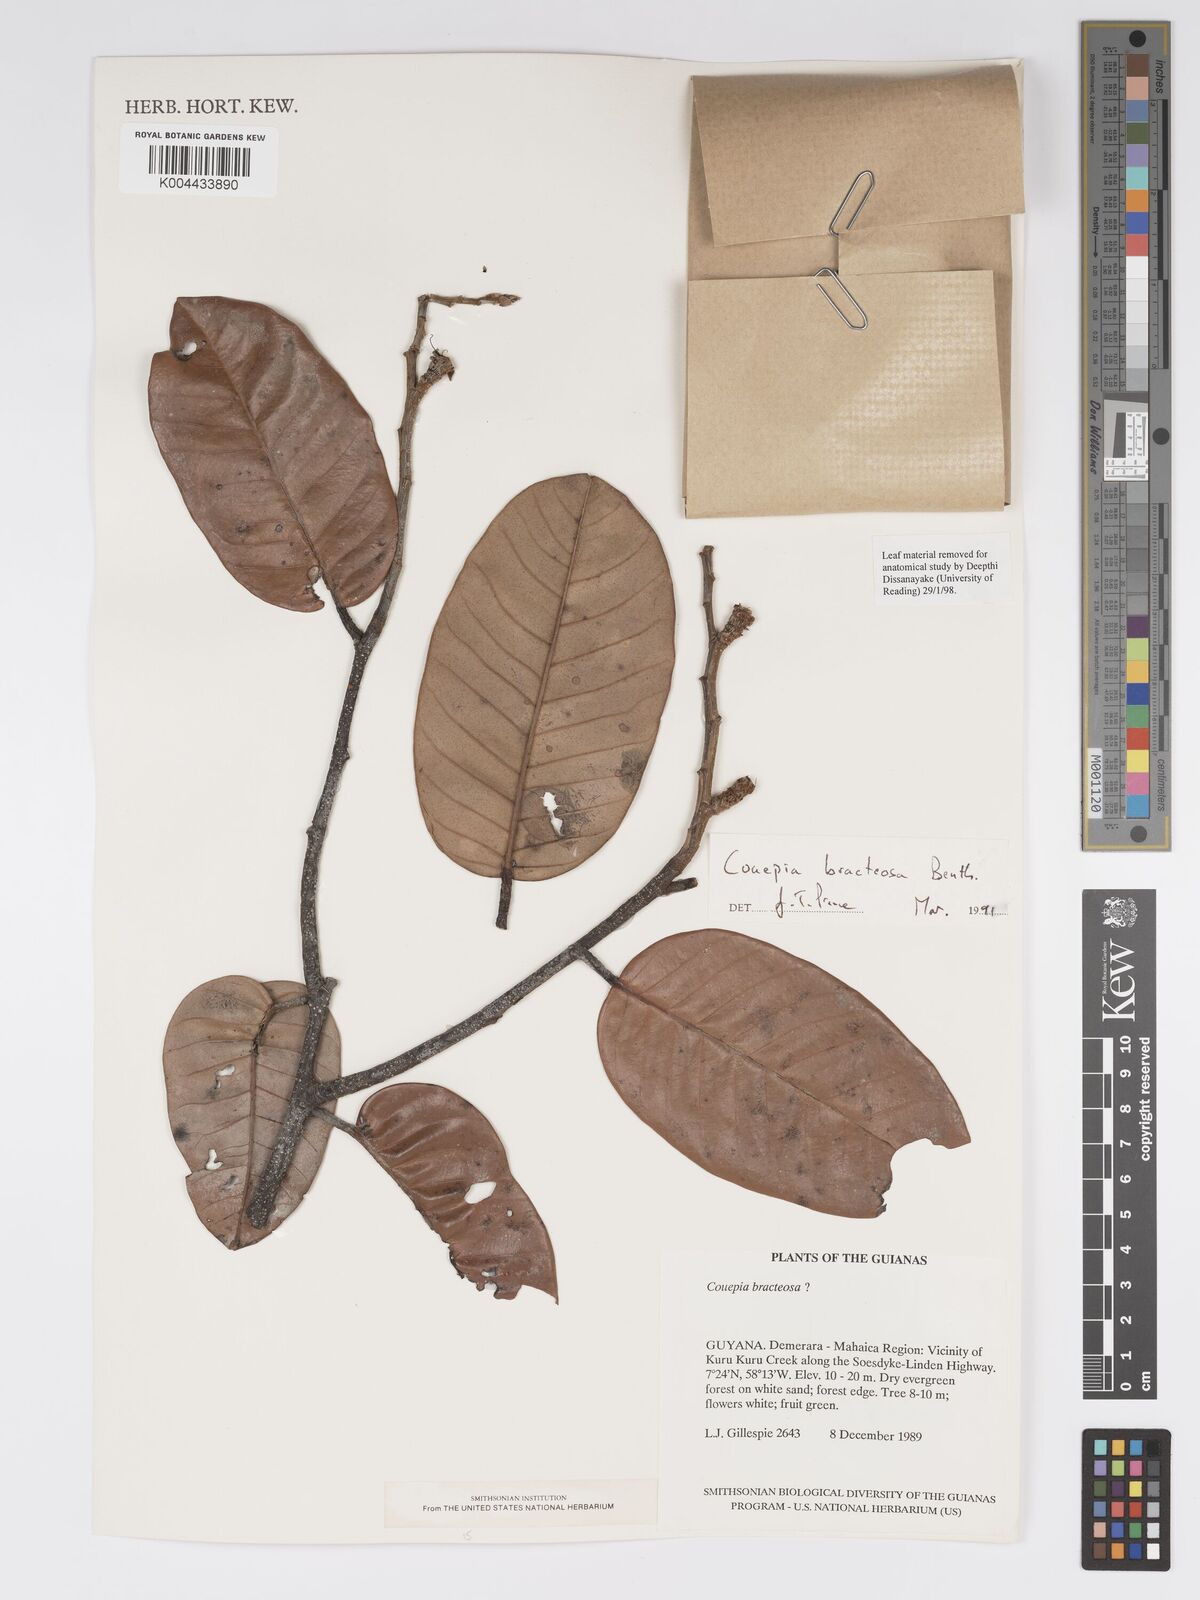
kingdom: Plantae
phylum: Tracheophyta
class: Magnoliopsida
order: Malpighiales
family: Chrysobalanaceae
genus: Couepia
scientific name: Couepia bracteosa
